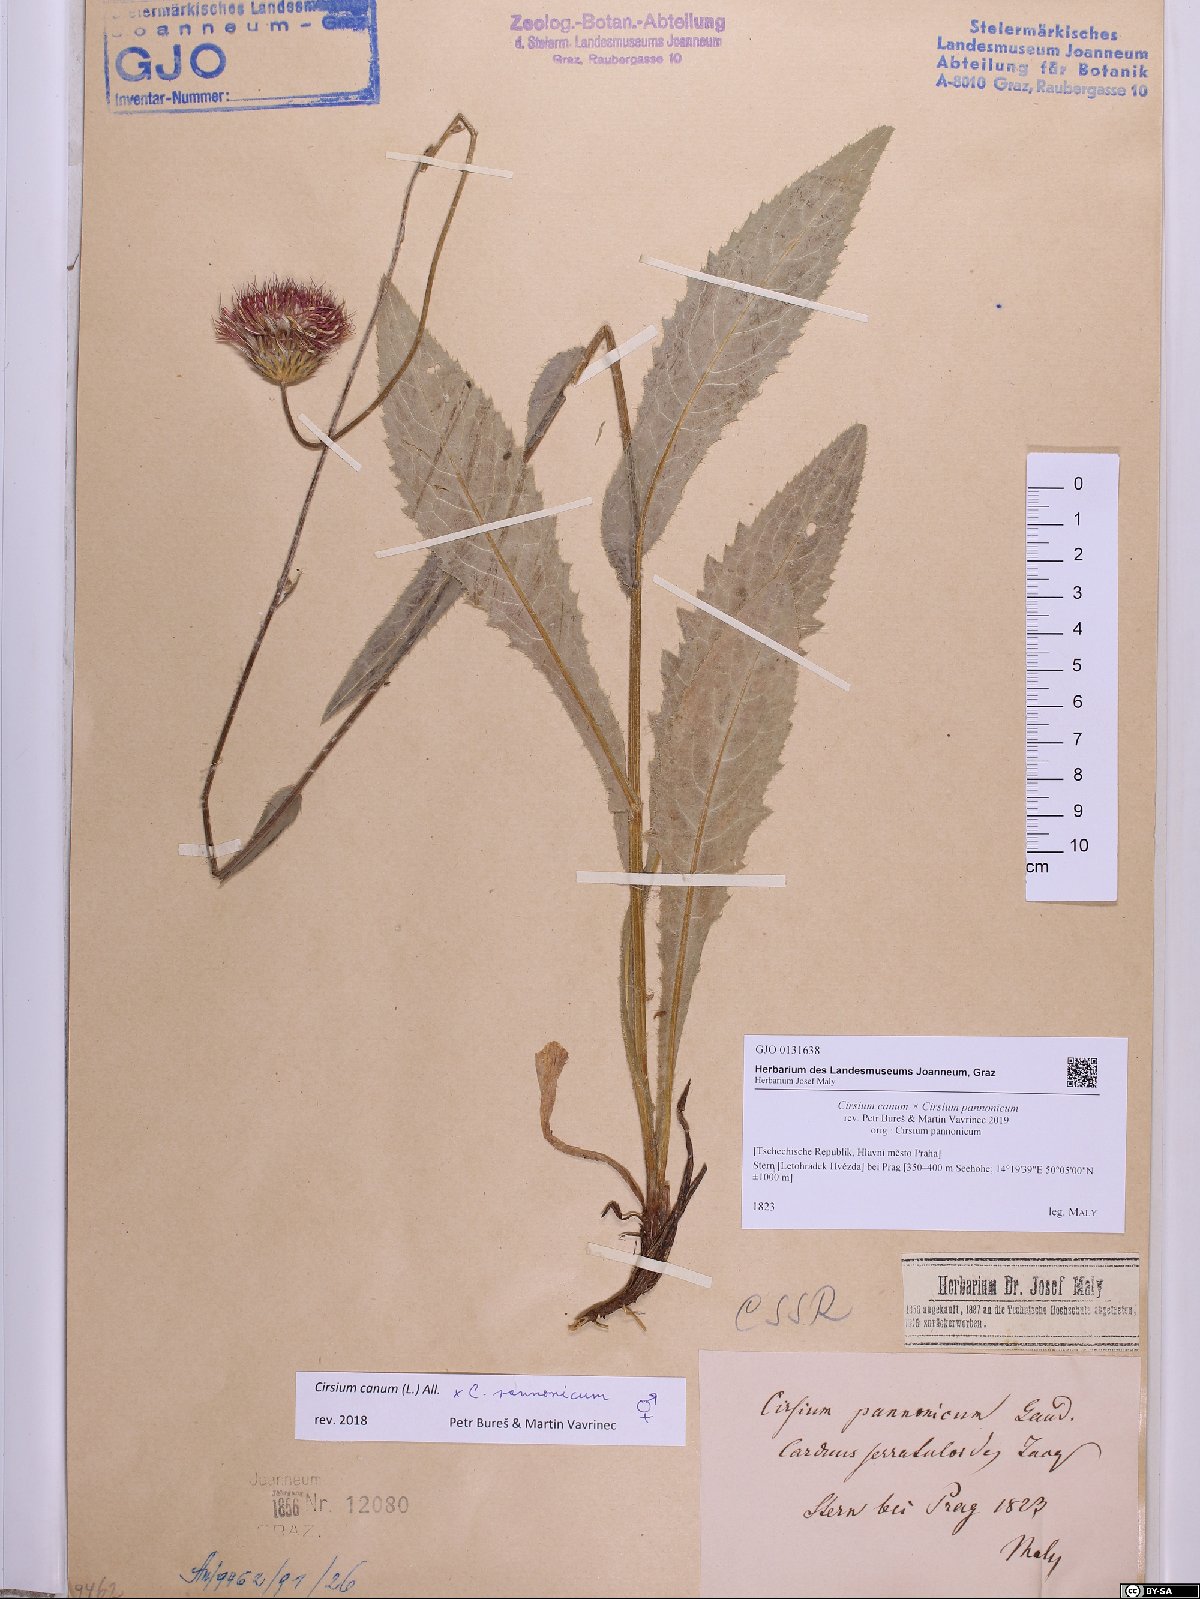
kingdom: Plantae
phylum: Tracheophyta
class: Magnoliopsida
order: Asterales
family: Asteraceae
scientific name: Asteraceae
